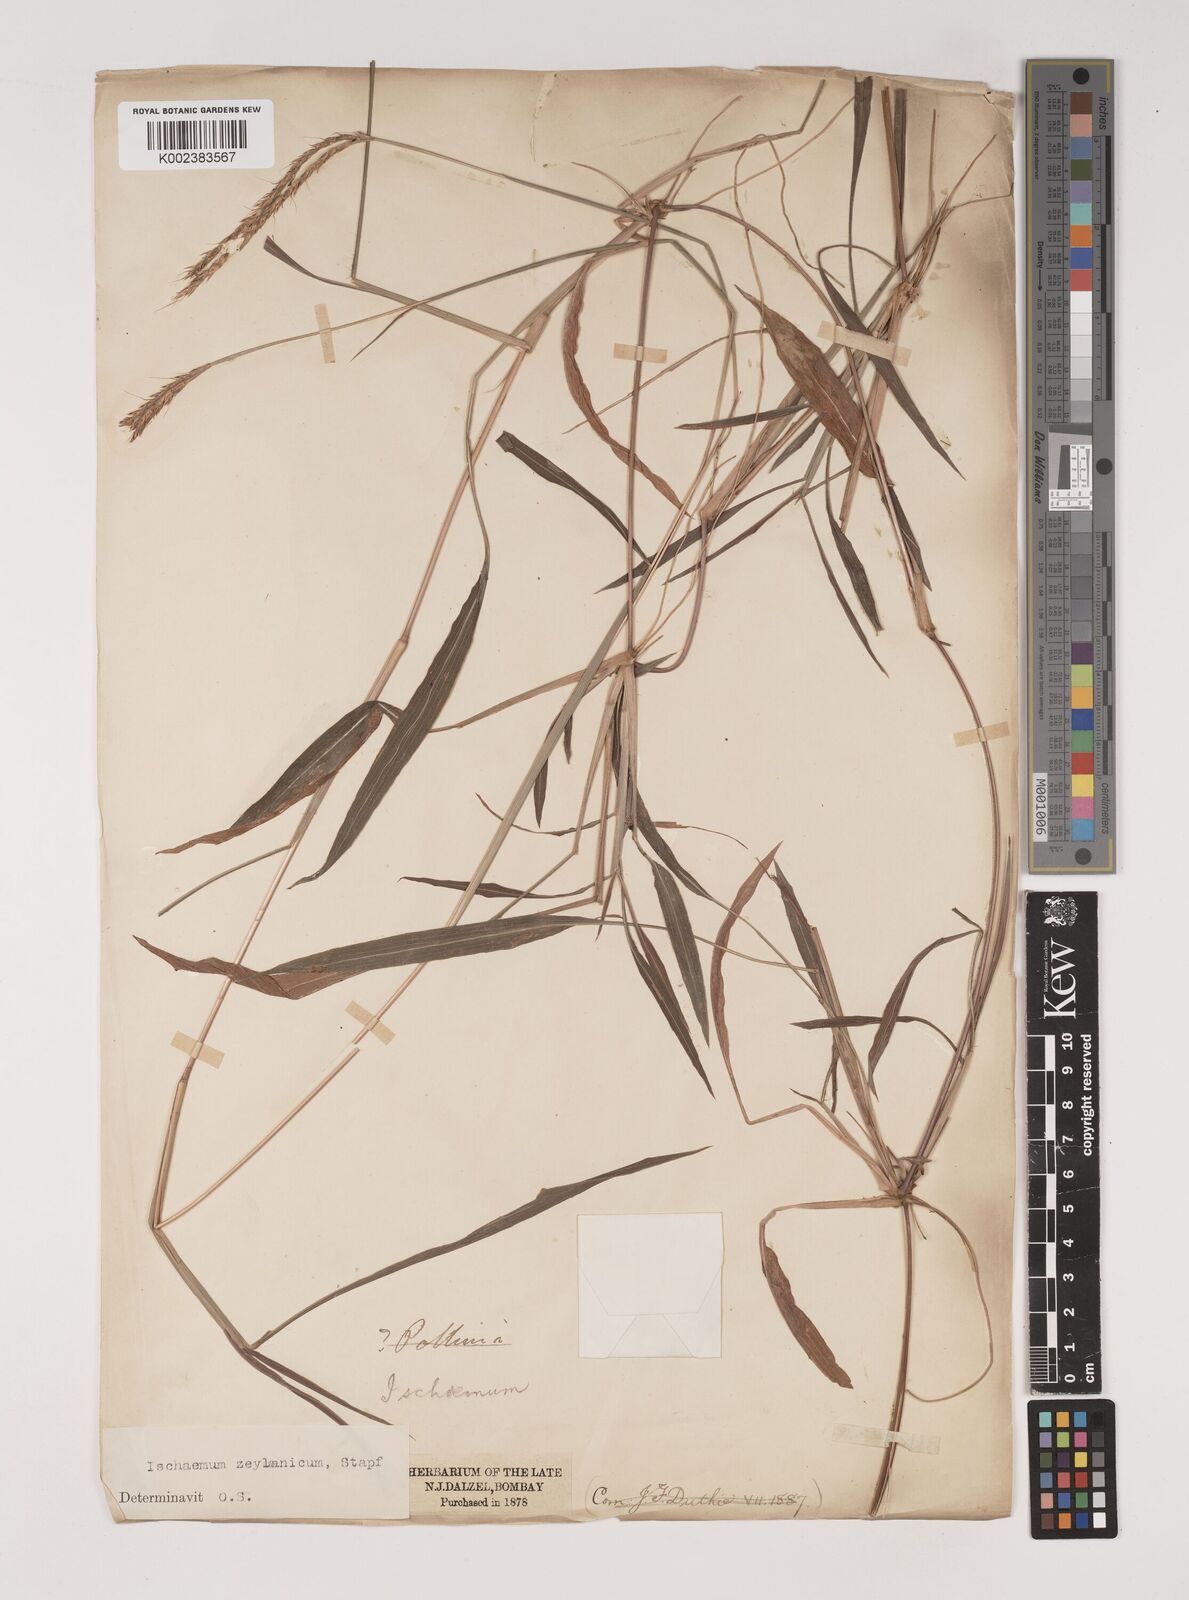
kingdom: Plantae
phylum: Tracheophyta
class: Liliopsida
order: Poales
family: Poaceae
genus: Ischaemum
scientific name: Ischaemum zeylanicola
